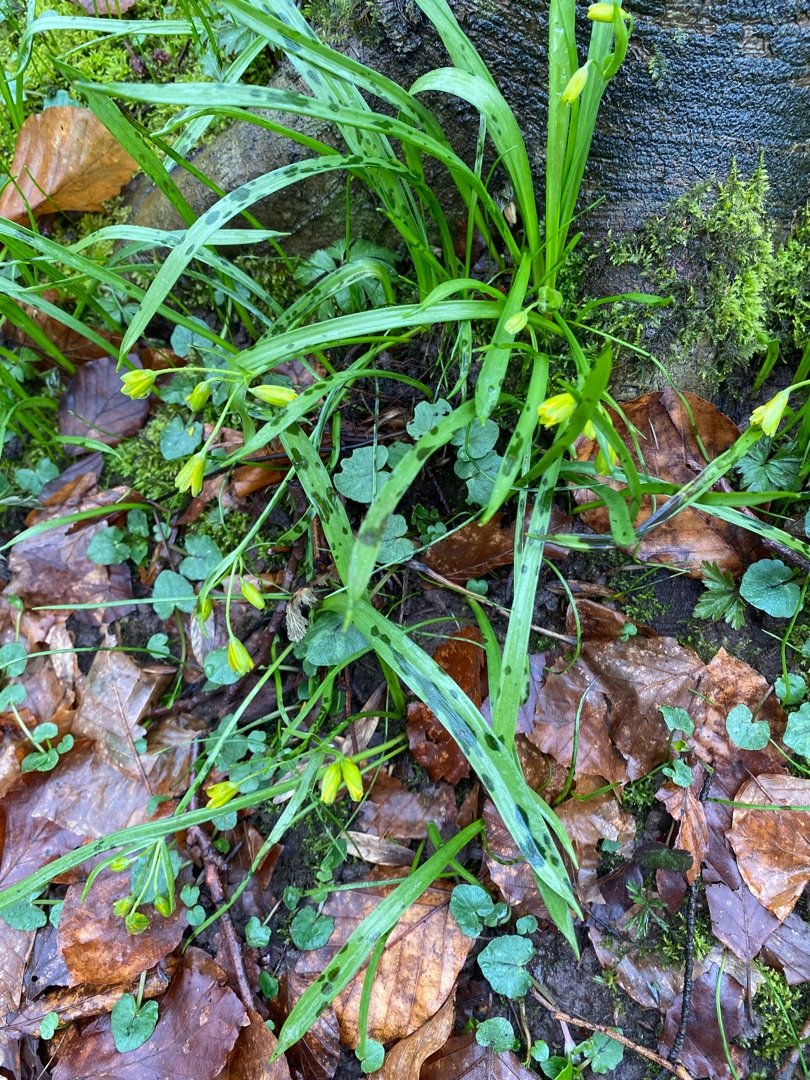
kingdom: Plantae
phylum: Tracheophyta
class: Liliopsida
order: Liliales
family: Liliaceae
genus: Gagea
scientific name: Gagea lutea
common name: Almindelig guldstjerne
